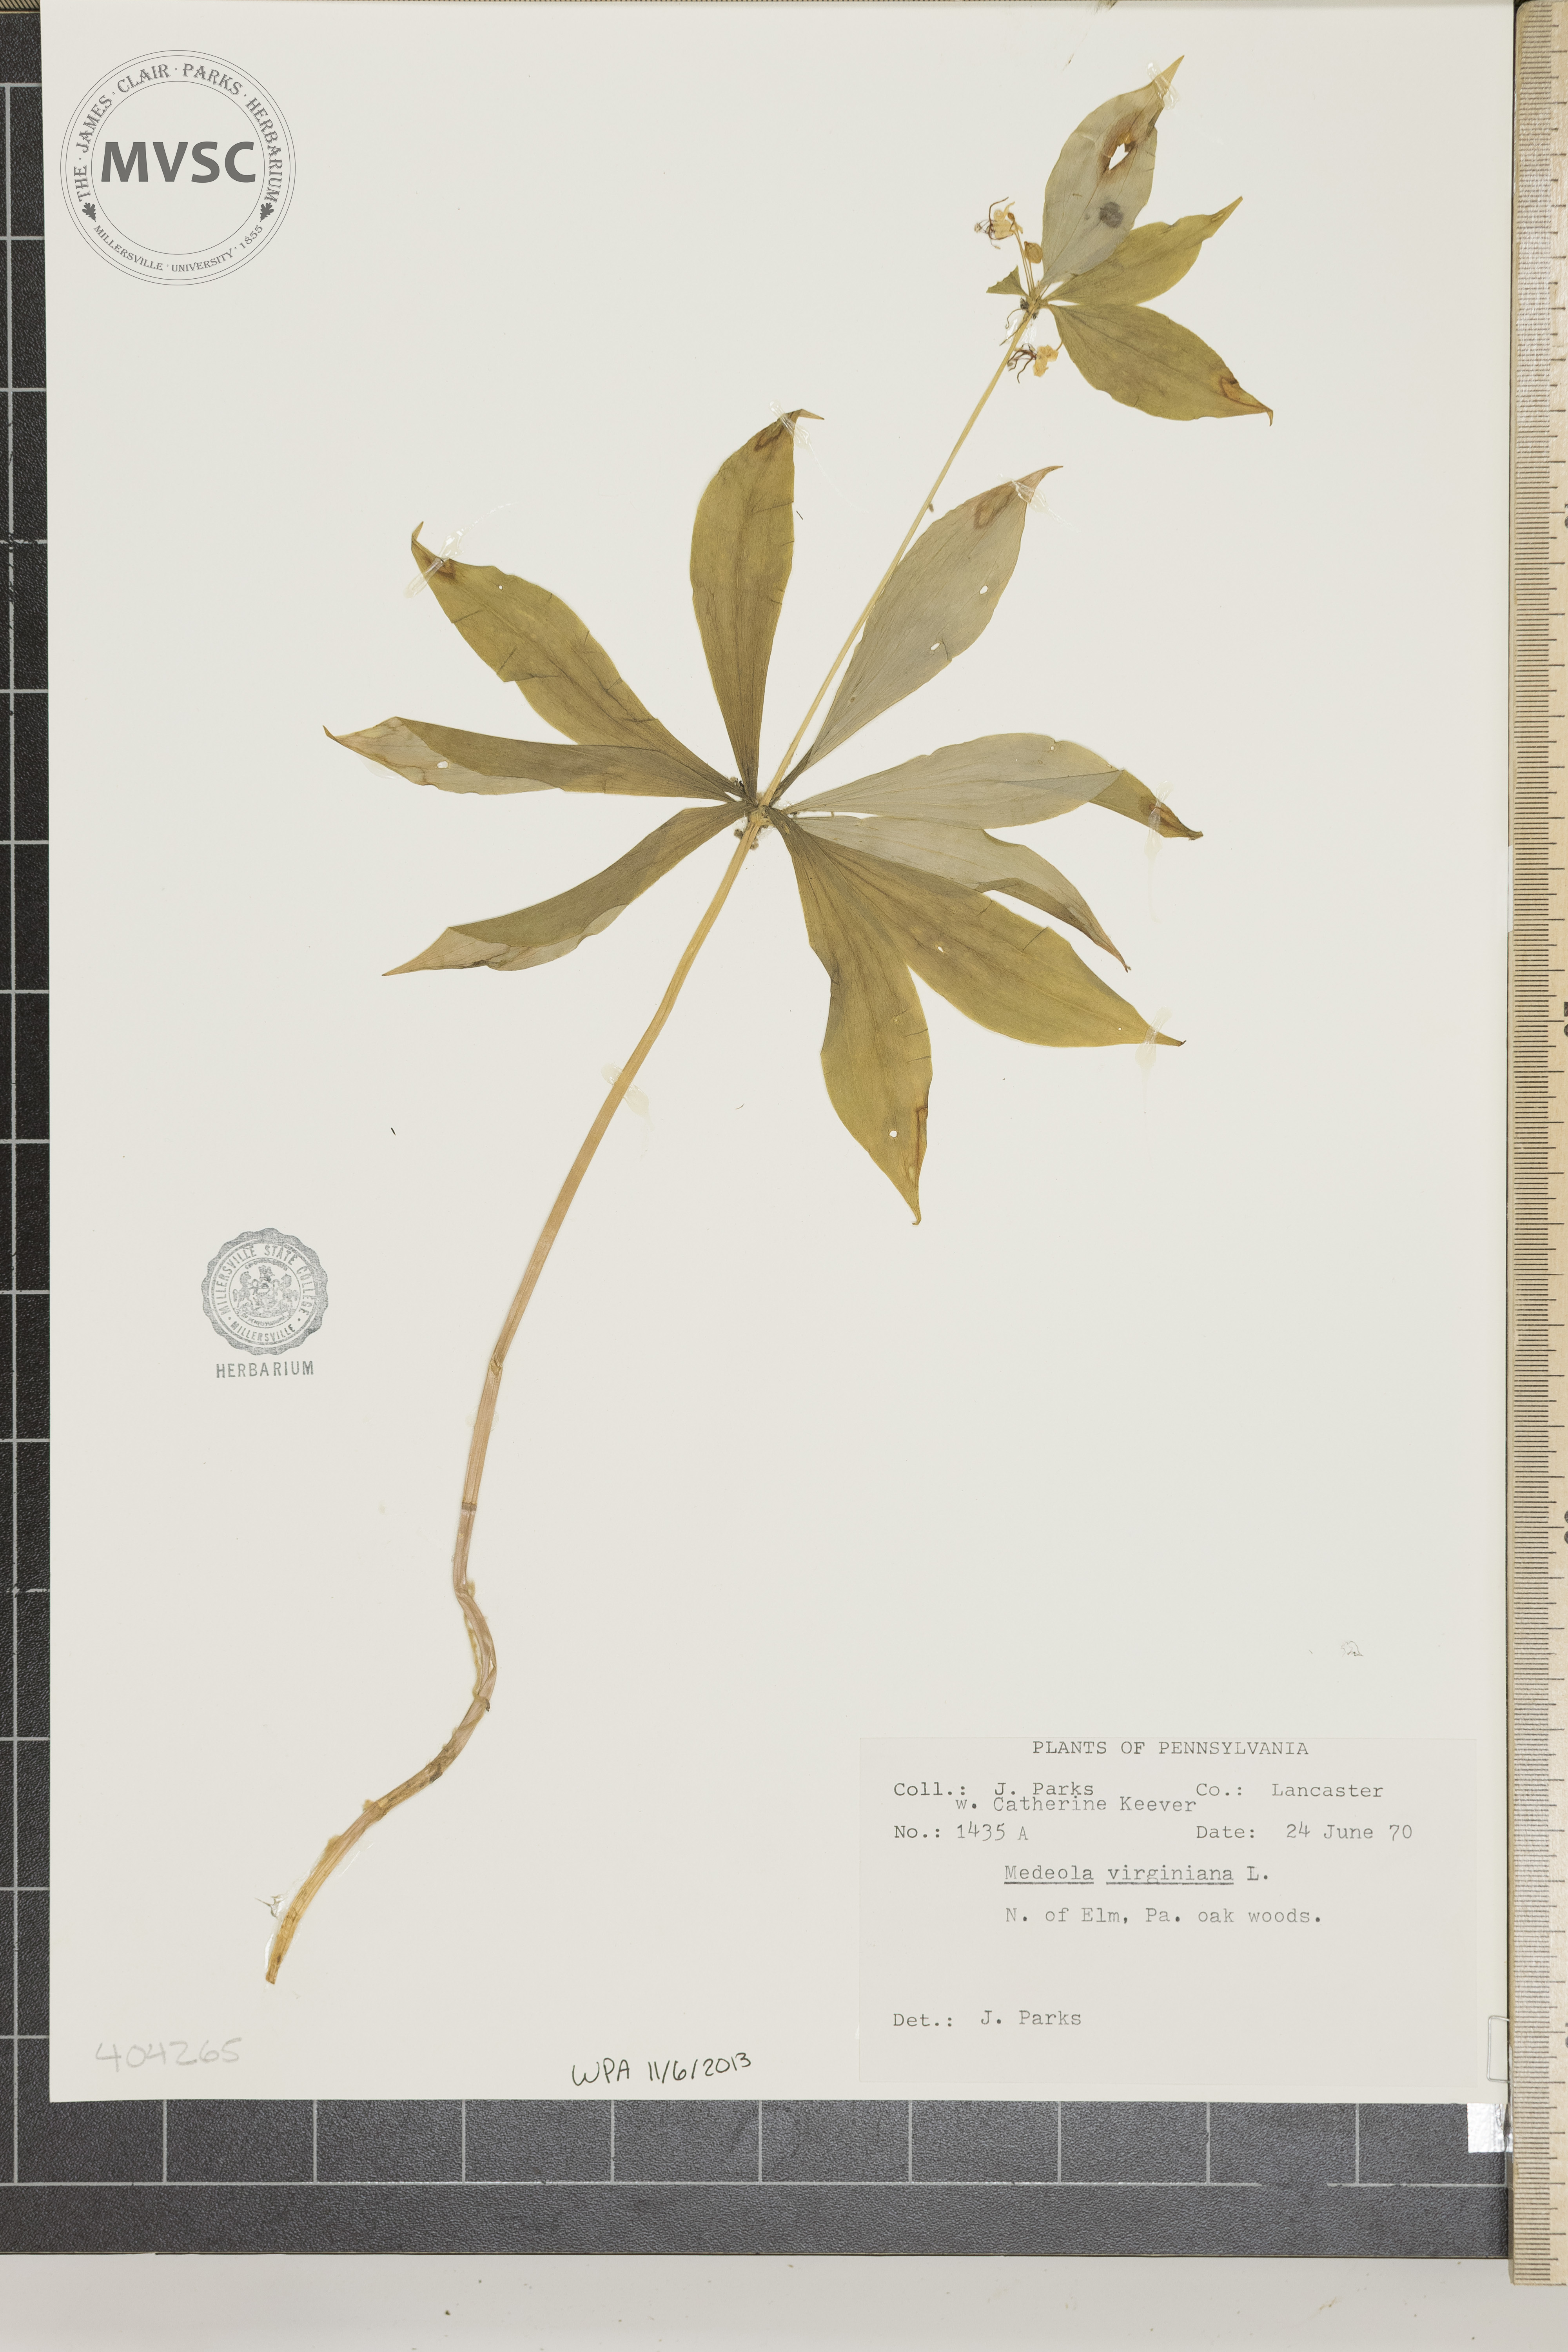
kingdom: Plantae
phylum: Tracheophyta
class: Liliopsida
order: Liliales
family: Liliaceae
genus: Medeola
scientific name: Medeola virginiana
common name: Indian cucumber-root
